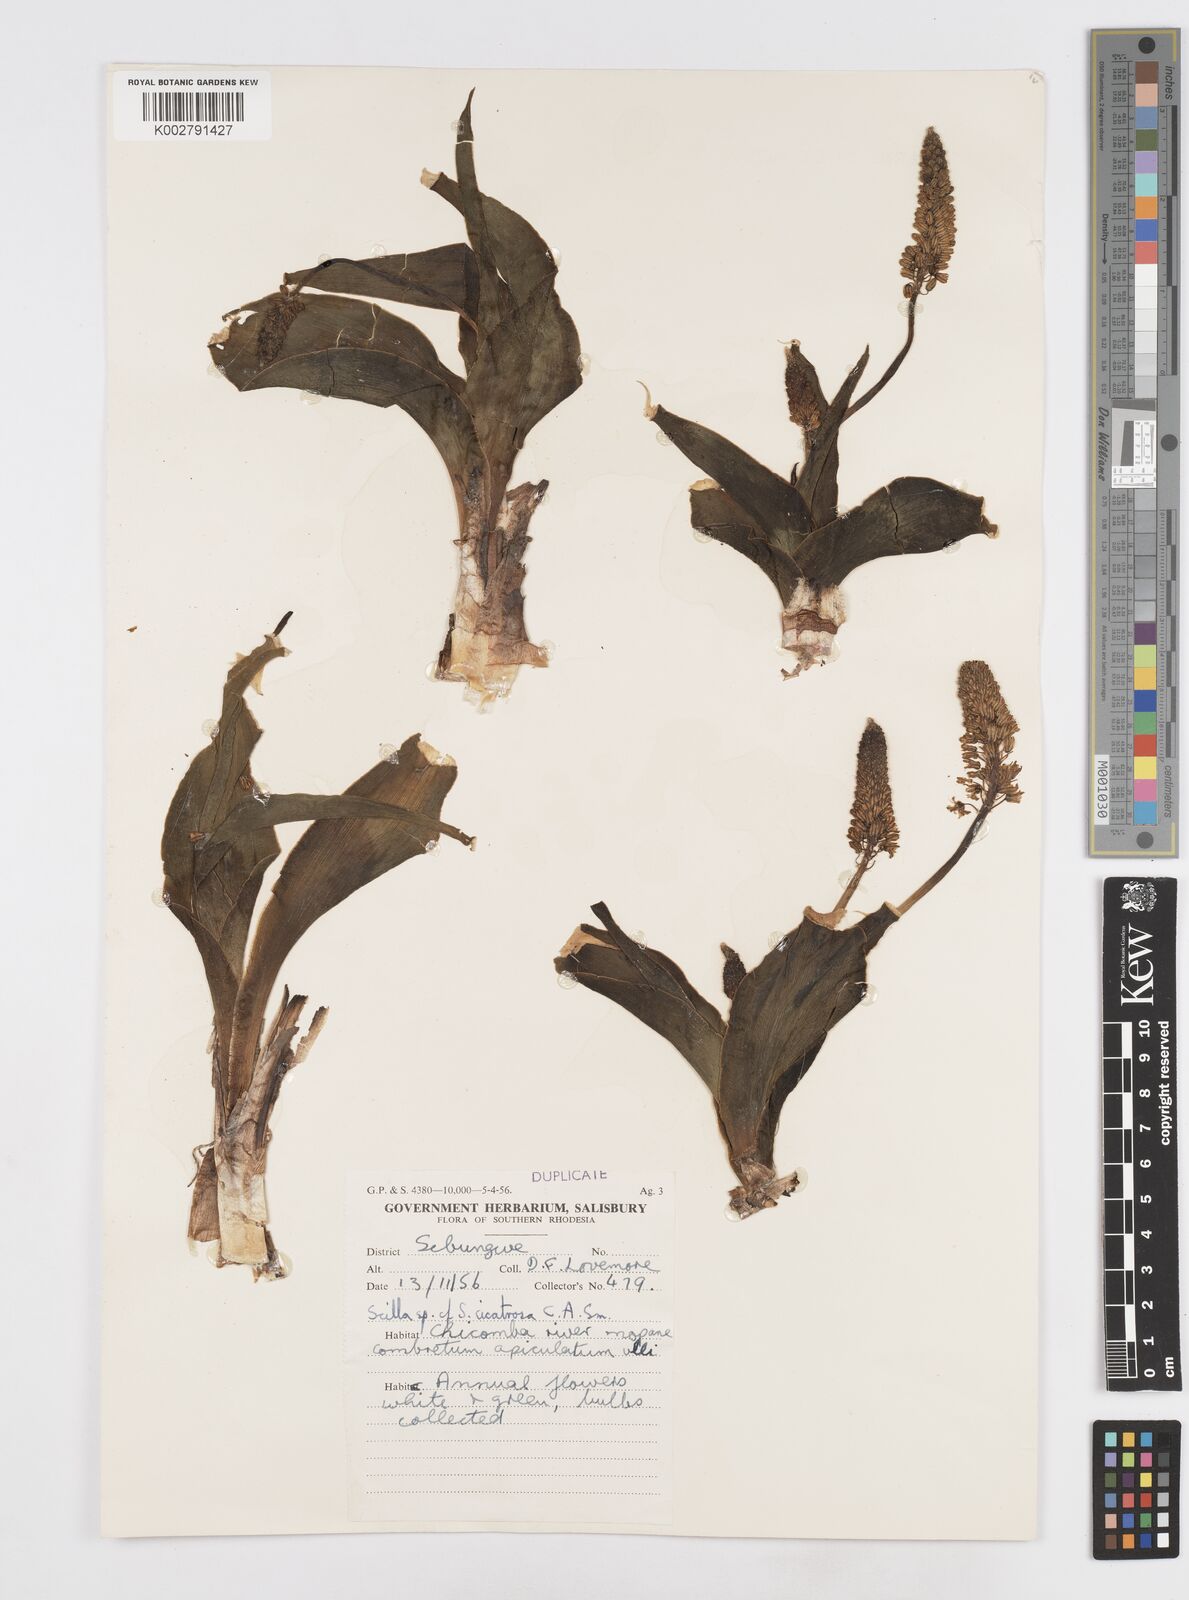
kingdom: Plantae
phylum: Tracheophyta
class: Liliopsida
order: Asparagales
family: Asparagaceae
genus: Ledebouria
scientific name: Ledebouria ovatifolia
